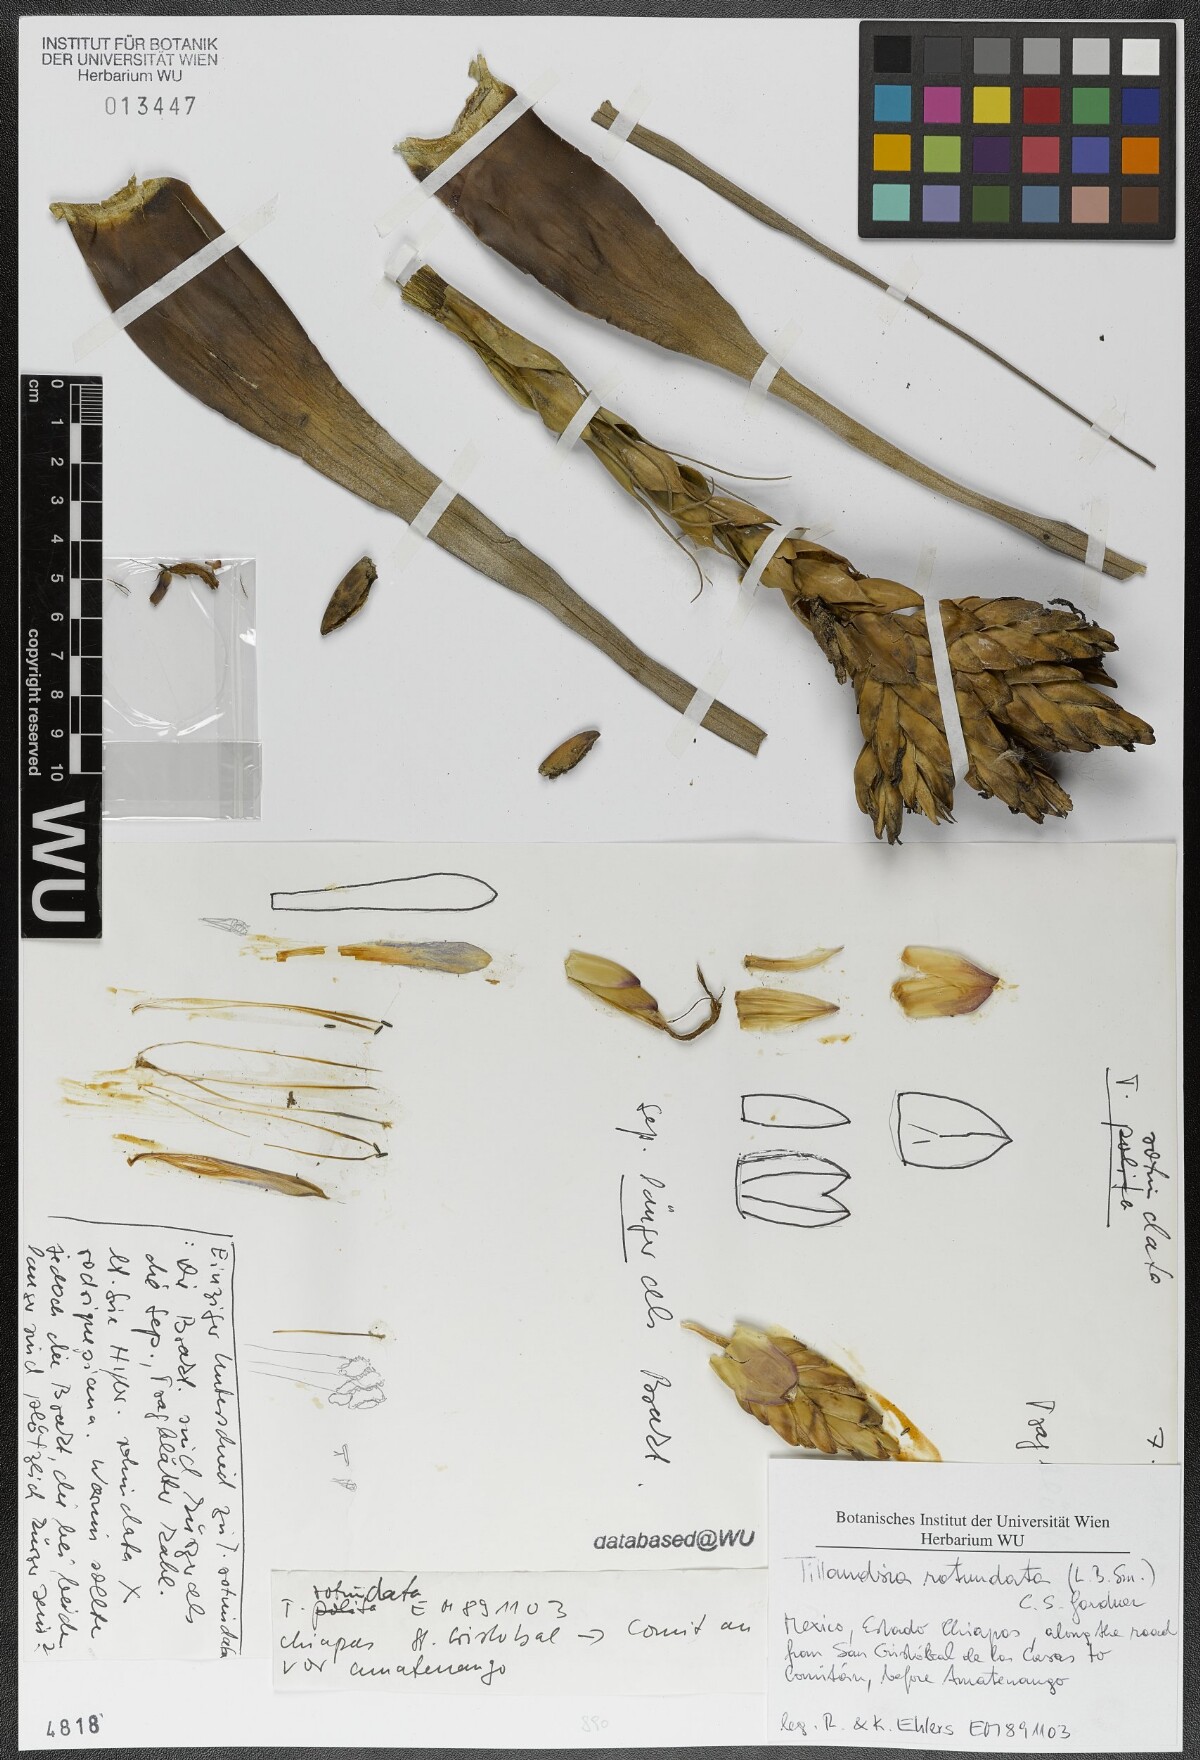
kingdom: Plantae
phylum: Tracheophyta
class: Liliopsida
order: Poales
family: Bromeliaceae
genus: Tillandsia
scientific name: Tillandsia butzii
